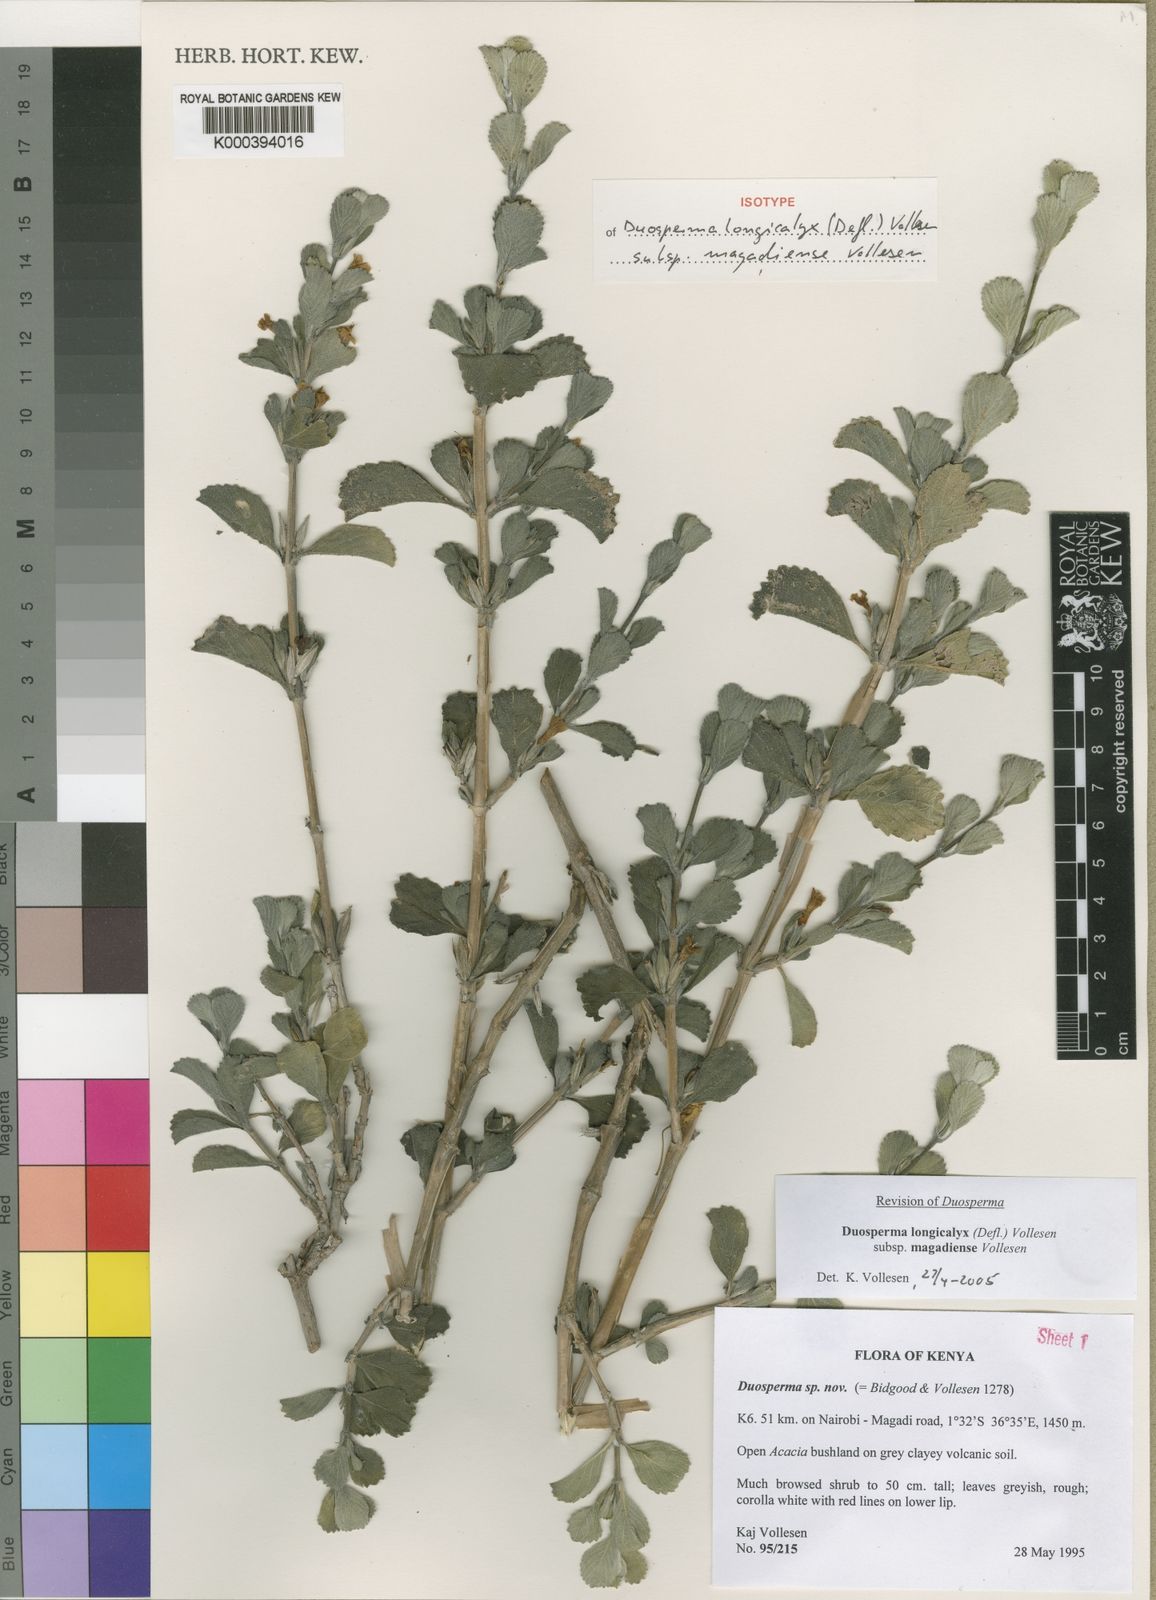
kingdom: Plantae
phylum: Tracheophyta
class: Magnoliopsida
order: Lamiales
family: Acanthaceae
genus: Duosperma
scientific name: Duosperma longicalyx
